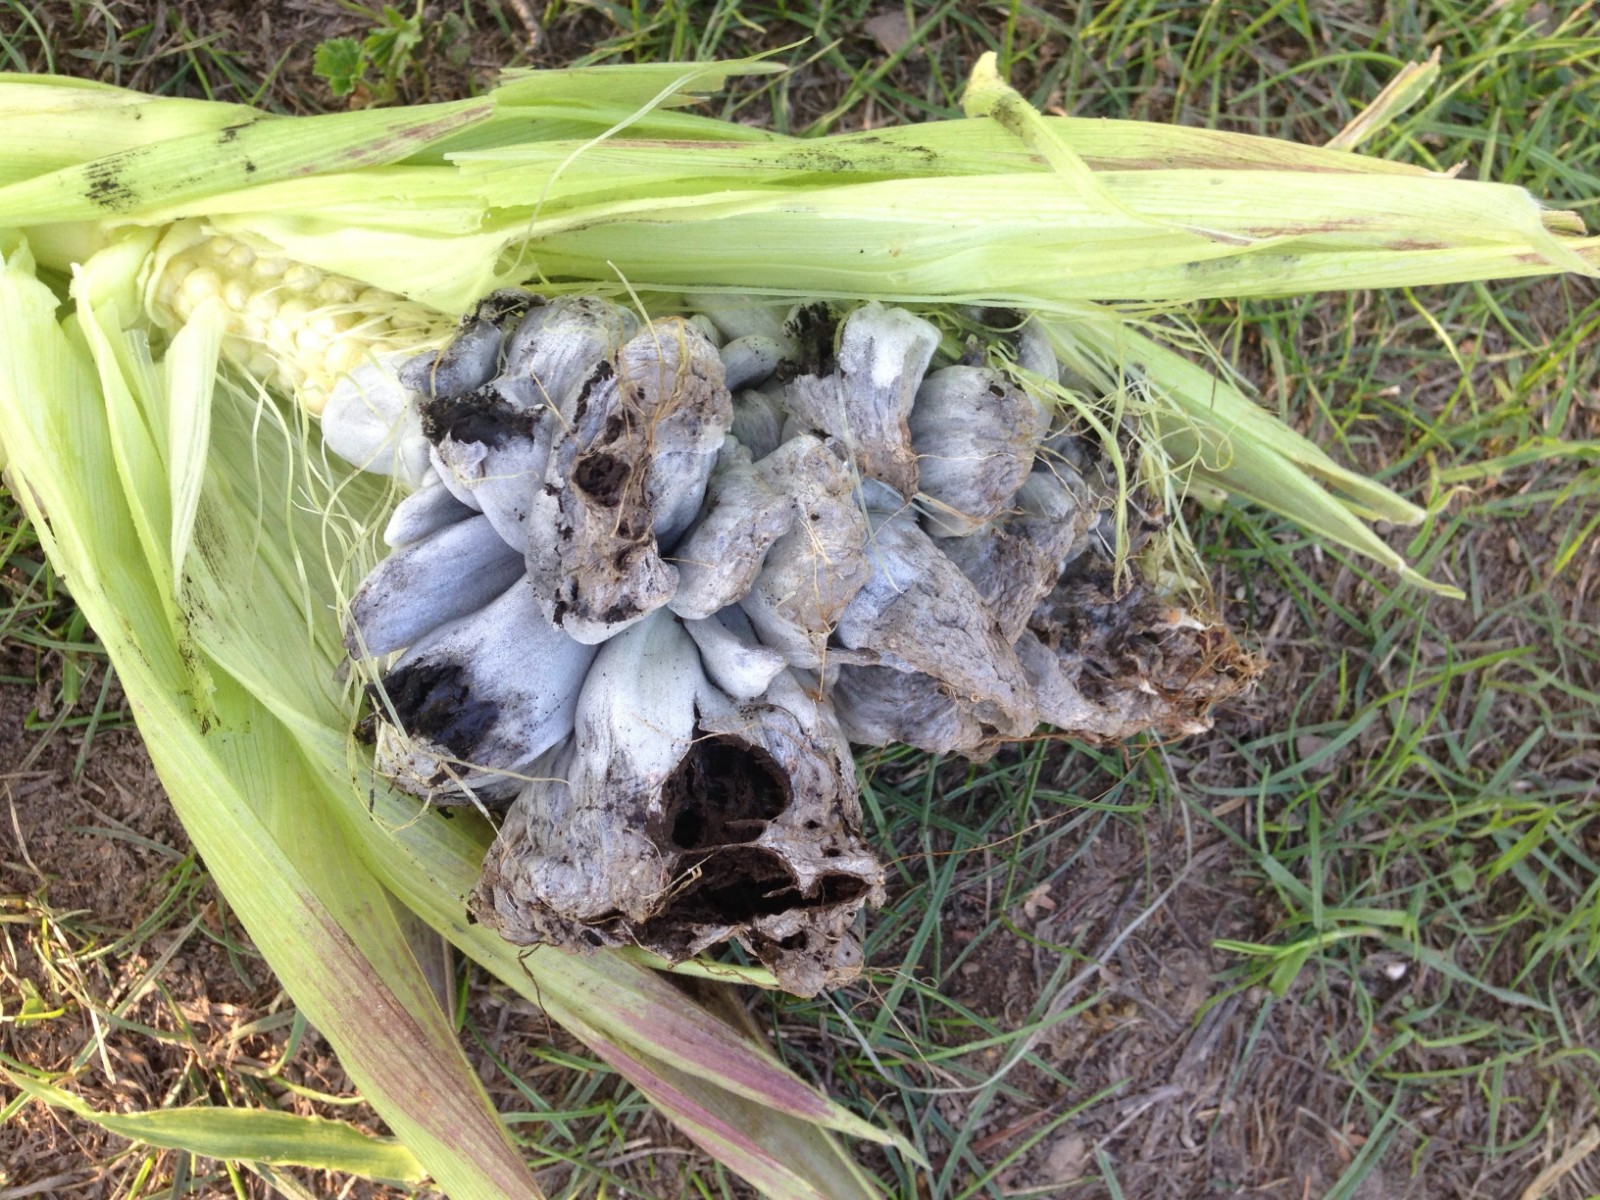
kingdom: Fungi
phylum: Basidiomycota
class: Ustilaginomycetes
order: Ustilaginales
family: Ustilaginaceae
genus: Mycosarcoma
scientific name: Mycosarcoma maydis
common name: majs-brand
